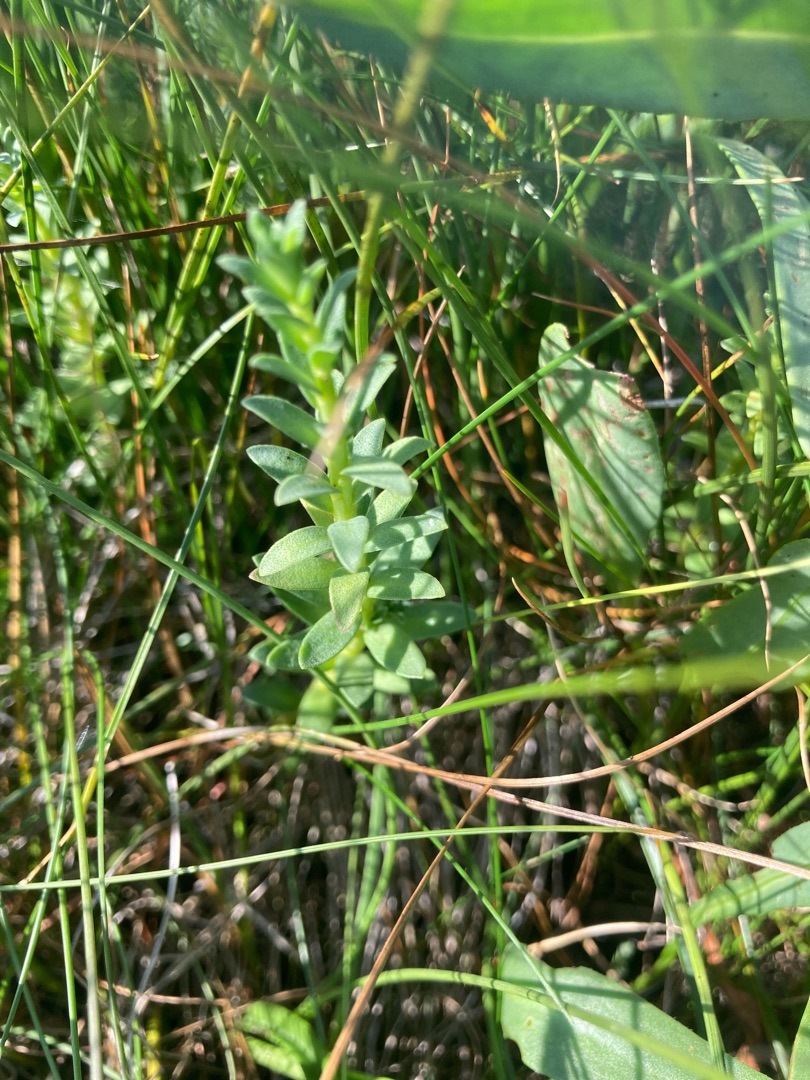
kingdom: Plantae
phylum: Tracheophyta
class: Magnoliopsida
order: Ericales
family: Primulaceae
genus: Lysimachia
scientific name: Lysimachia maritima
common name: Sandkryb
